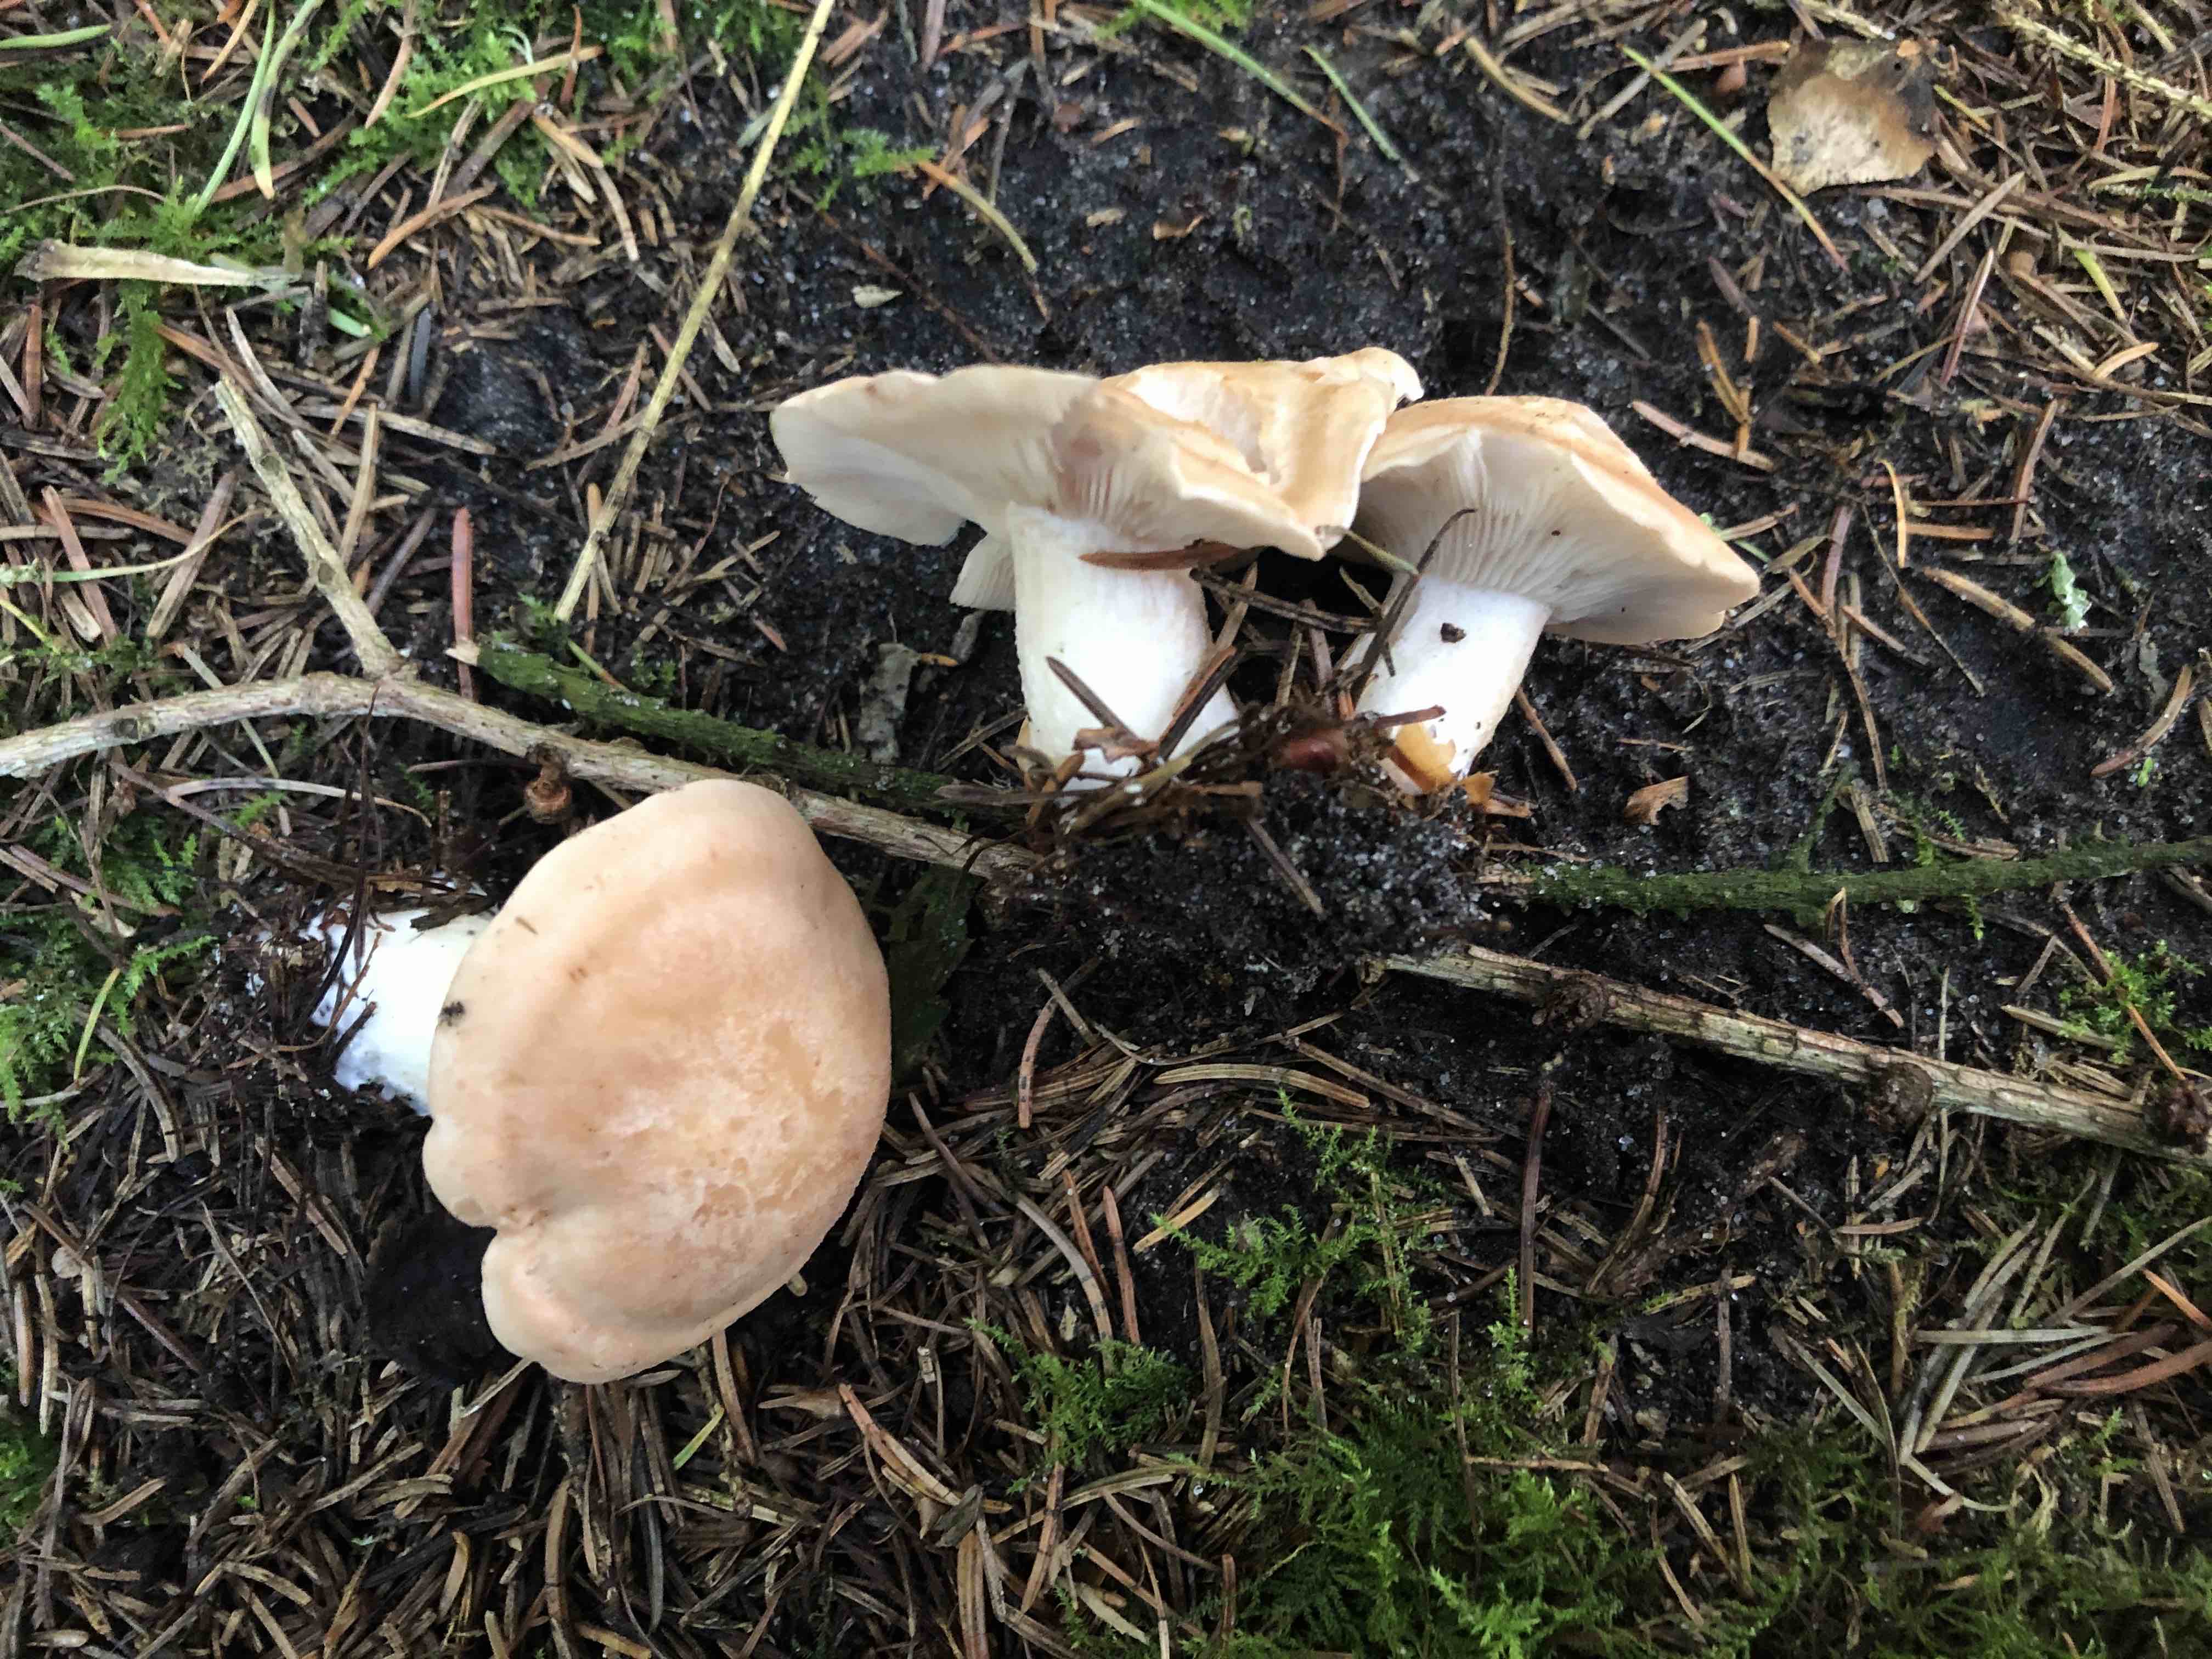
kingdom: Fungi
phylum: Basidiomycota
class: Agaricomycetes
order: Agaricales
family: Entolomataceae
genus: Clitopilus
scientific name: Clitopilus geminus
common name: kødfarvet troldhat
